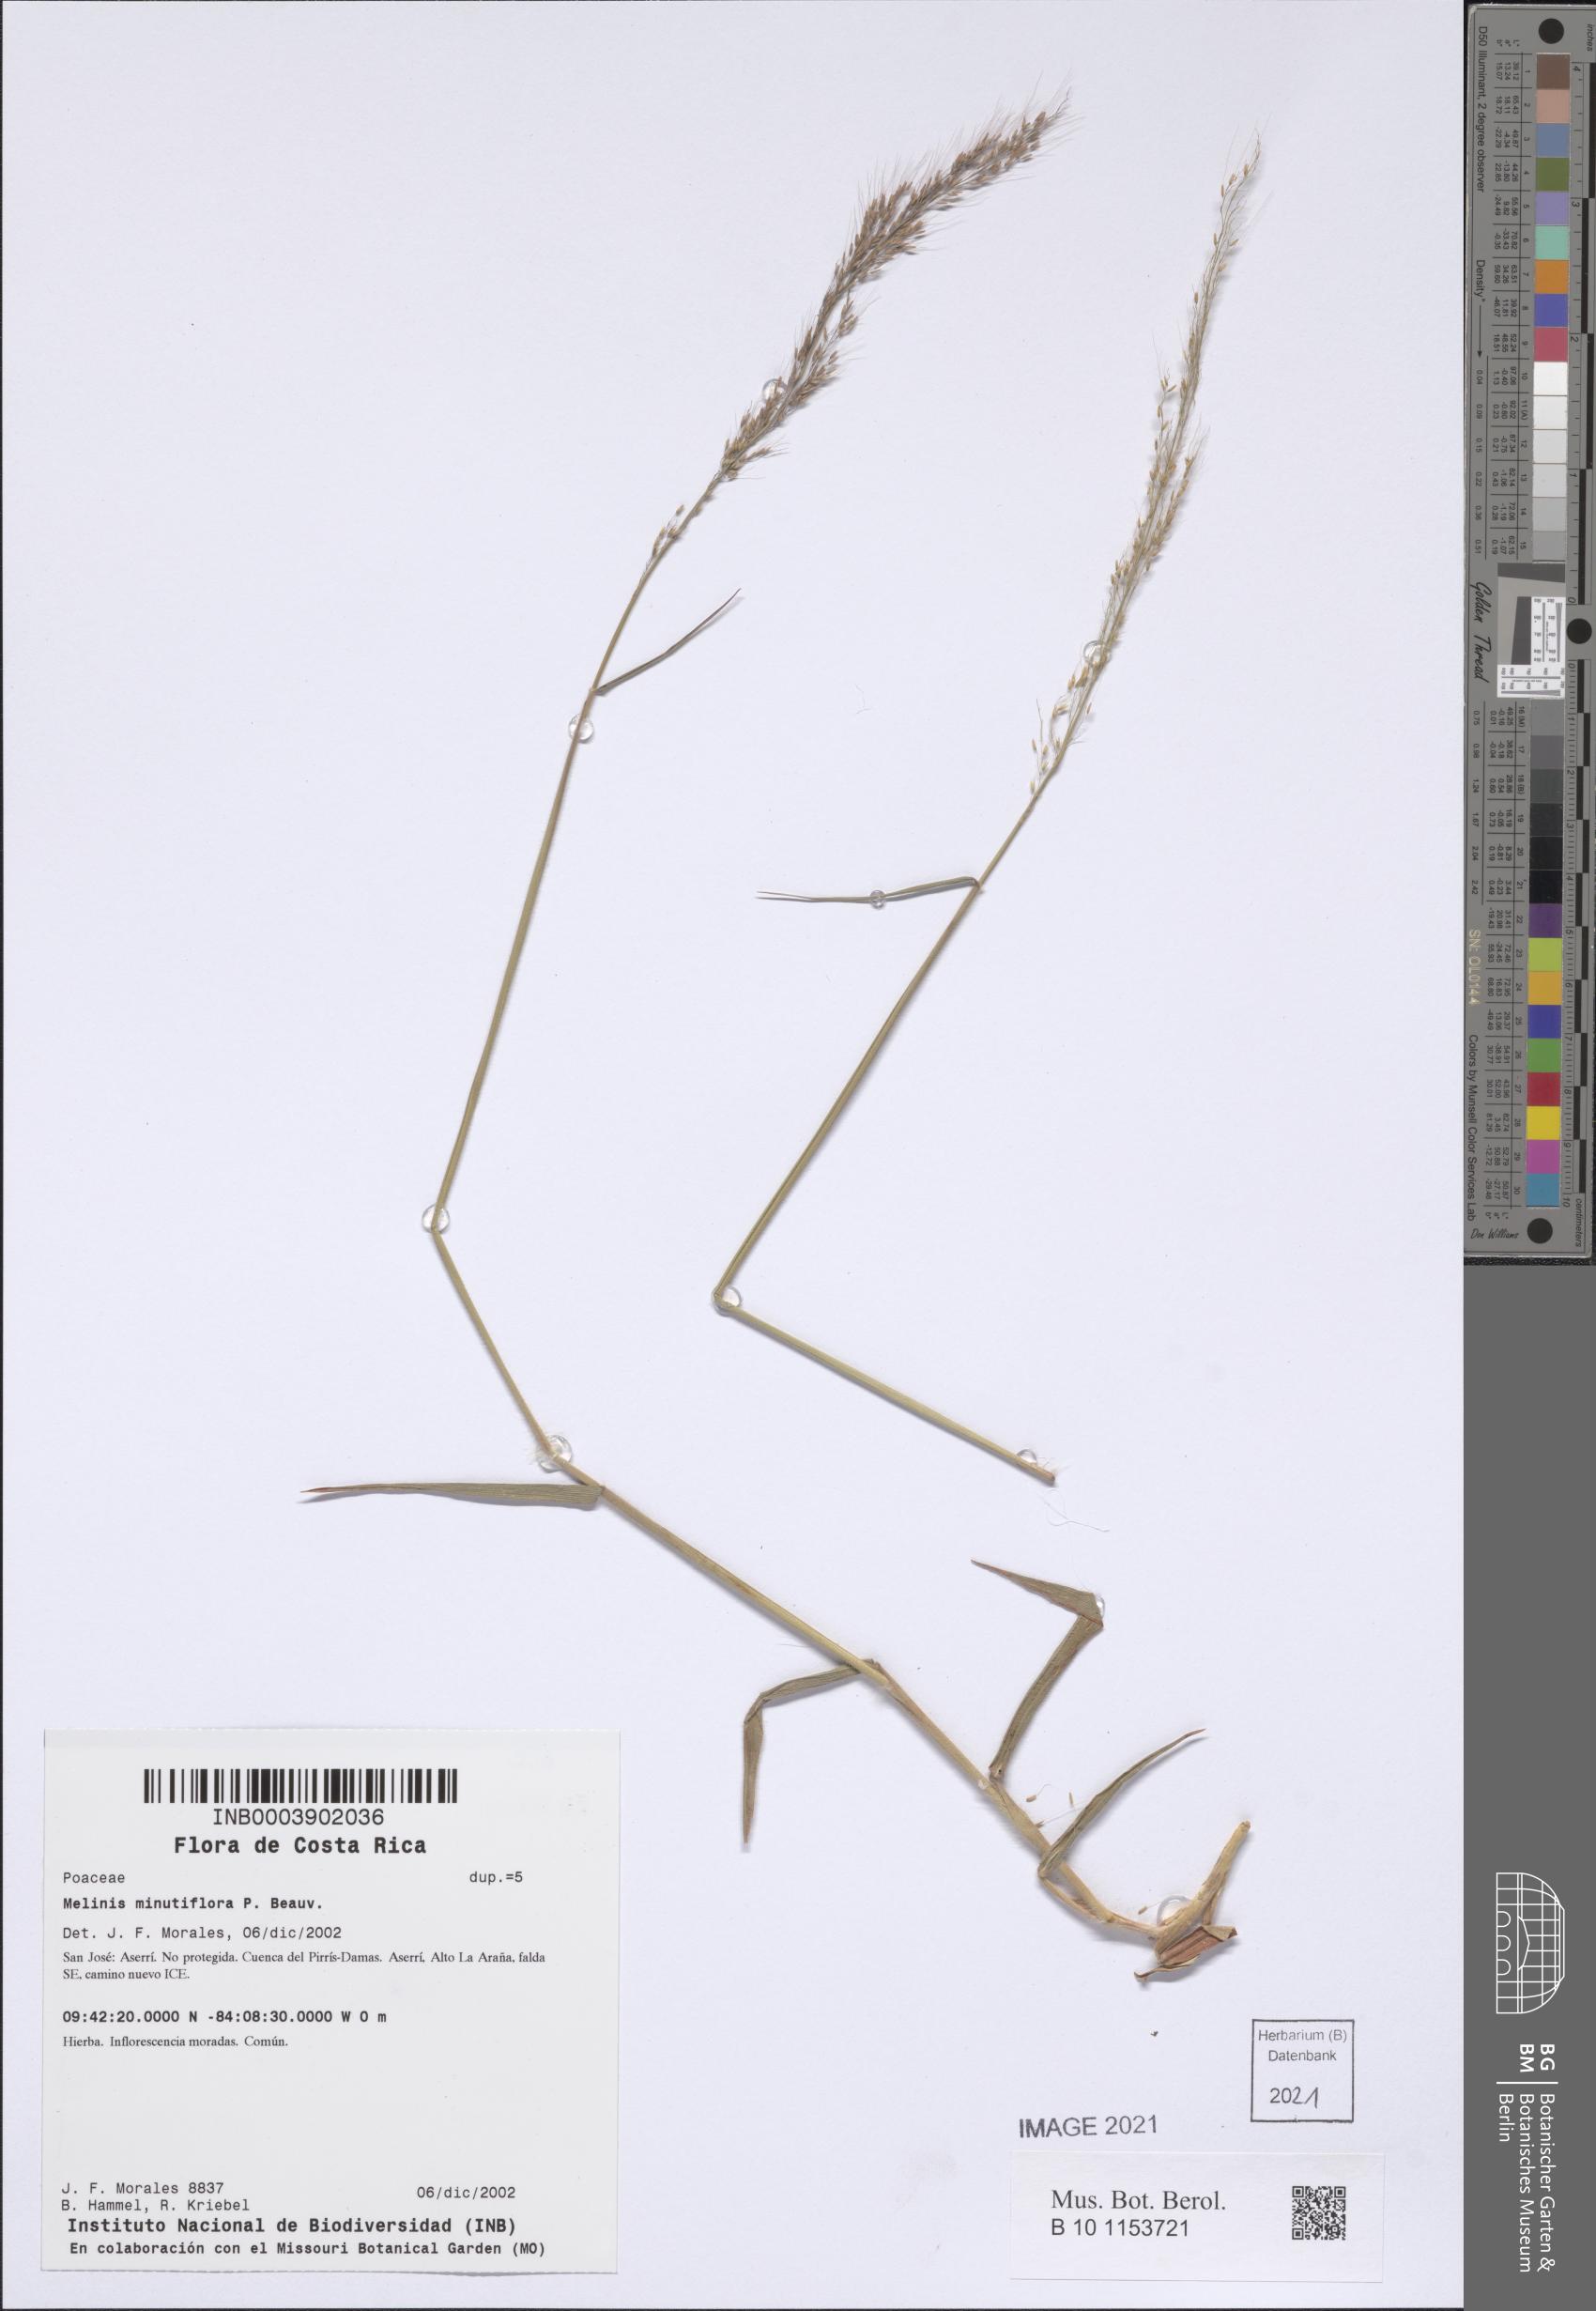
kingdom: Plantae
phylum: Tracheophyta
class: Liliopsida
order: Poales
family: Poaceae
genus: Melinis
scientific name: Melinis minutiflora
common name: Molassesgrass
